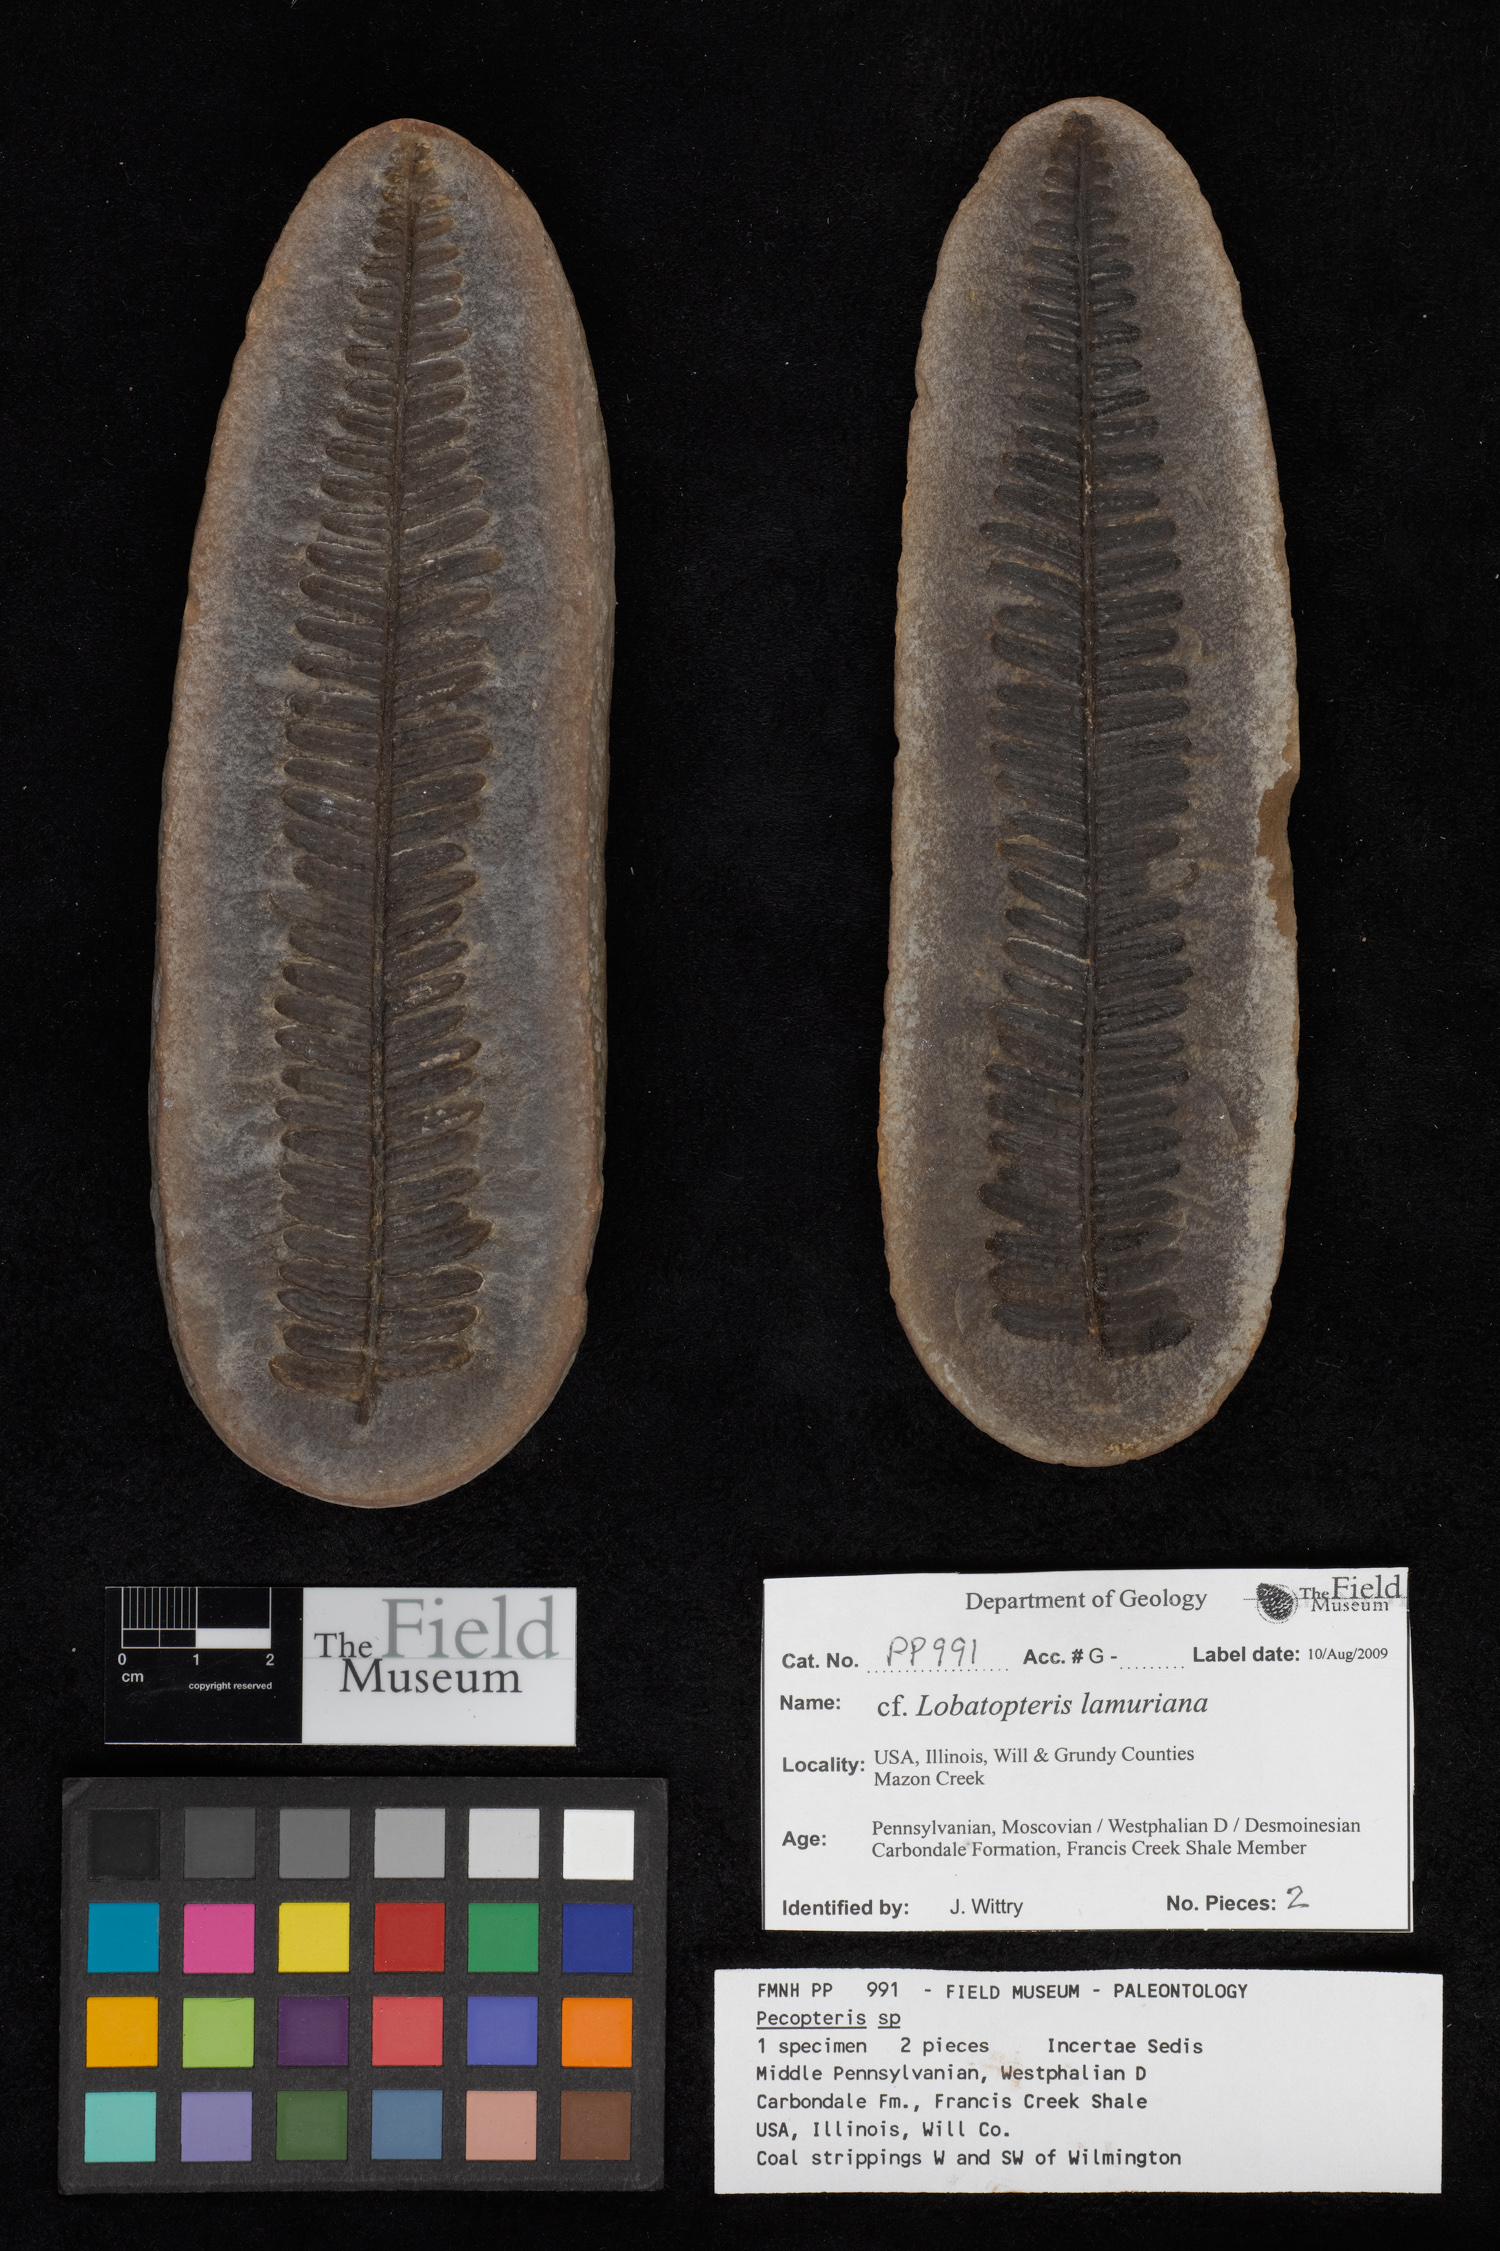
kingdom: Plantae
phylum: Tracheophyta
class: Polypodiopsida
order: Marattiales
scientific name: Marattiales
